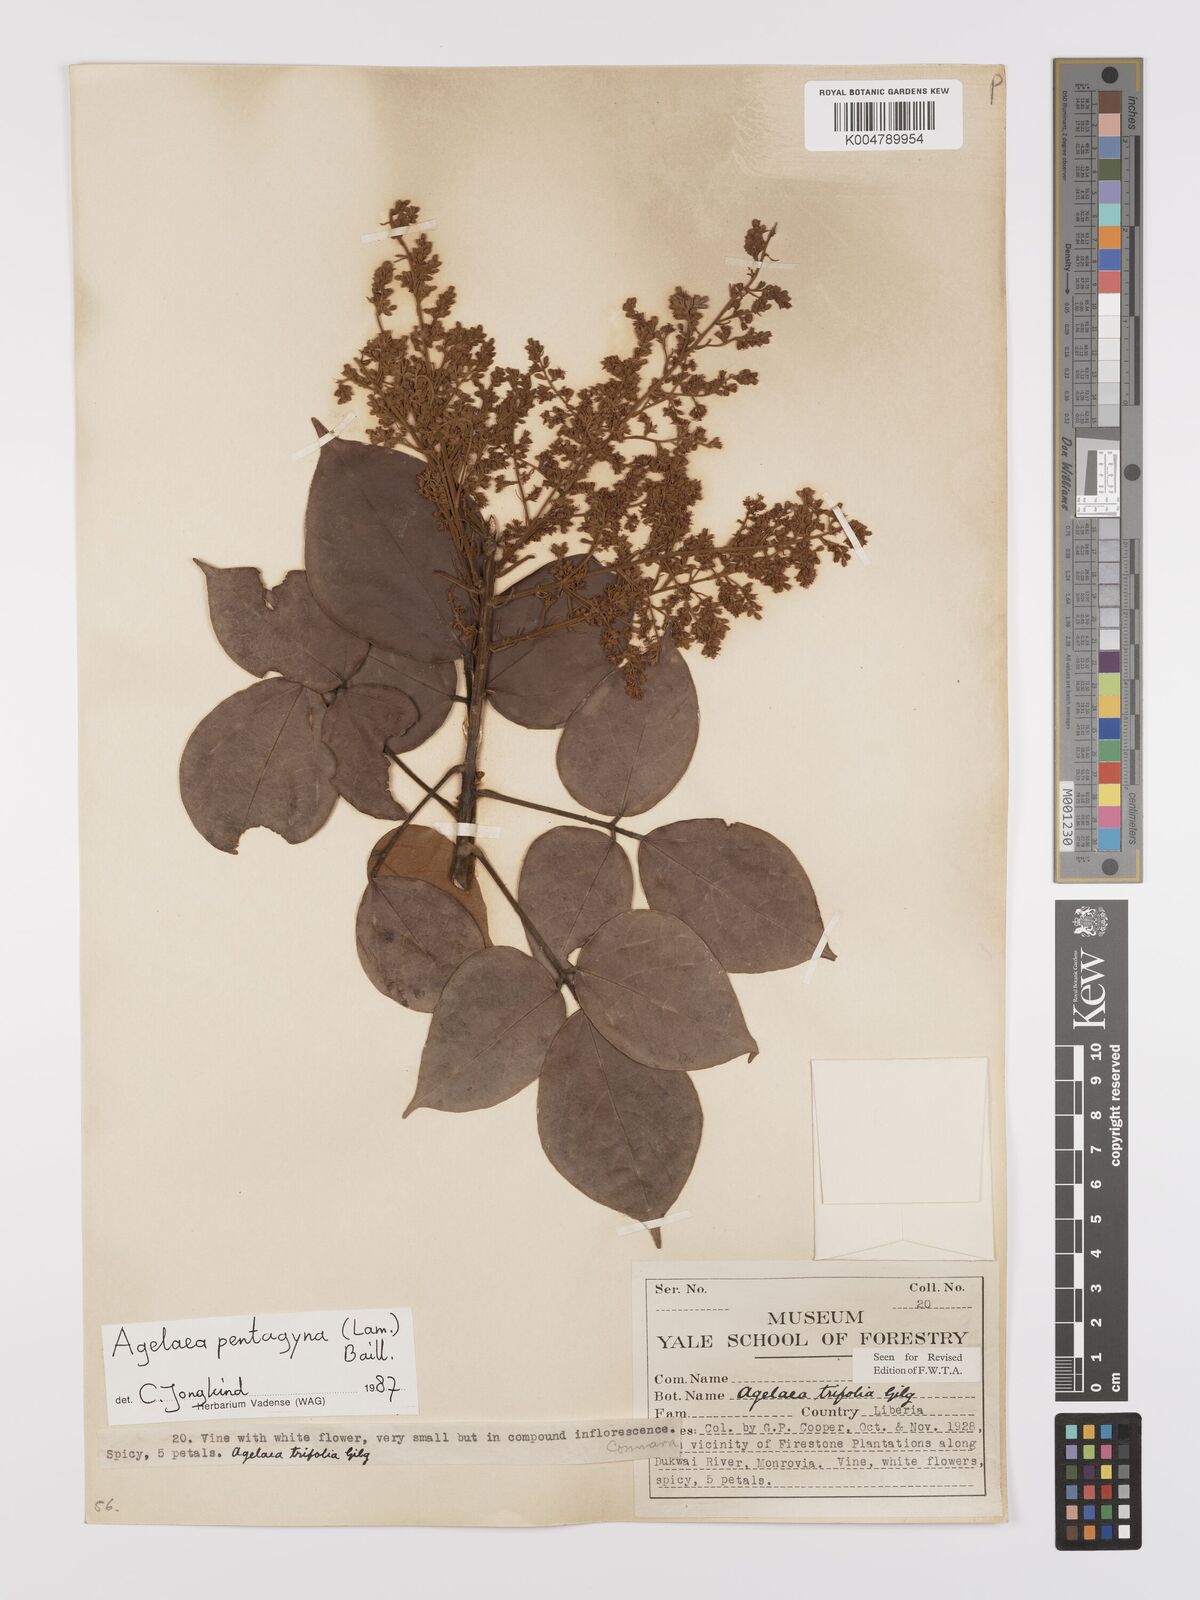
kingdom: Plantae
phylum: Tracheophyta
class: Magnoliopsida
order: Oxalidales
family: Connaraceae
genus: Agelaea
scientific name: Agelaea pentagyna
